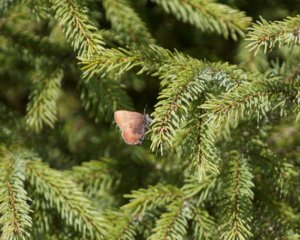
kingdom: Animalia
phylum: Arthropoda
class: Insecta
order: Lepidoptera
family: Lycaenidae
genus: Incisalia
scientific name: Incisalia irioides
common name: Brown Elfin
